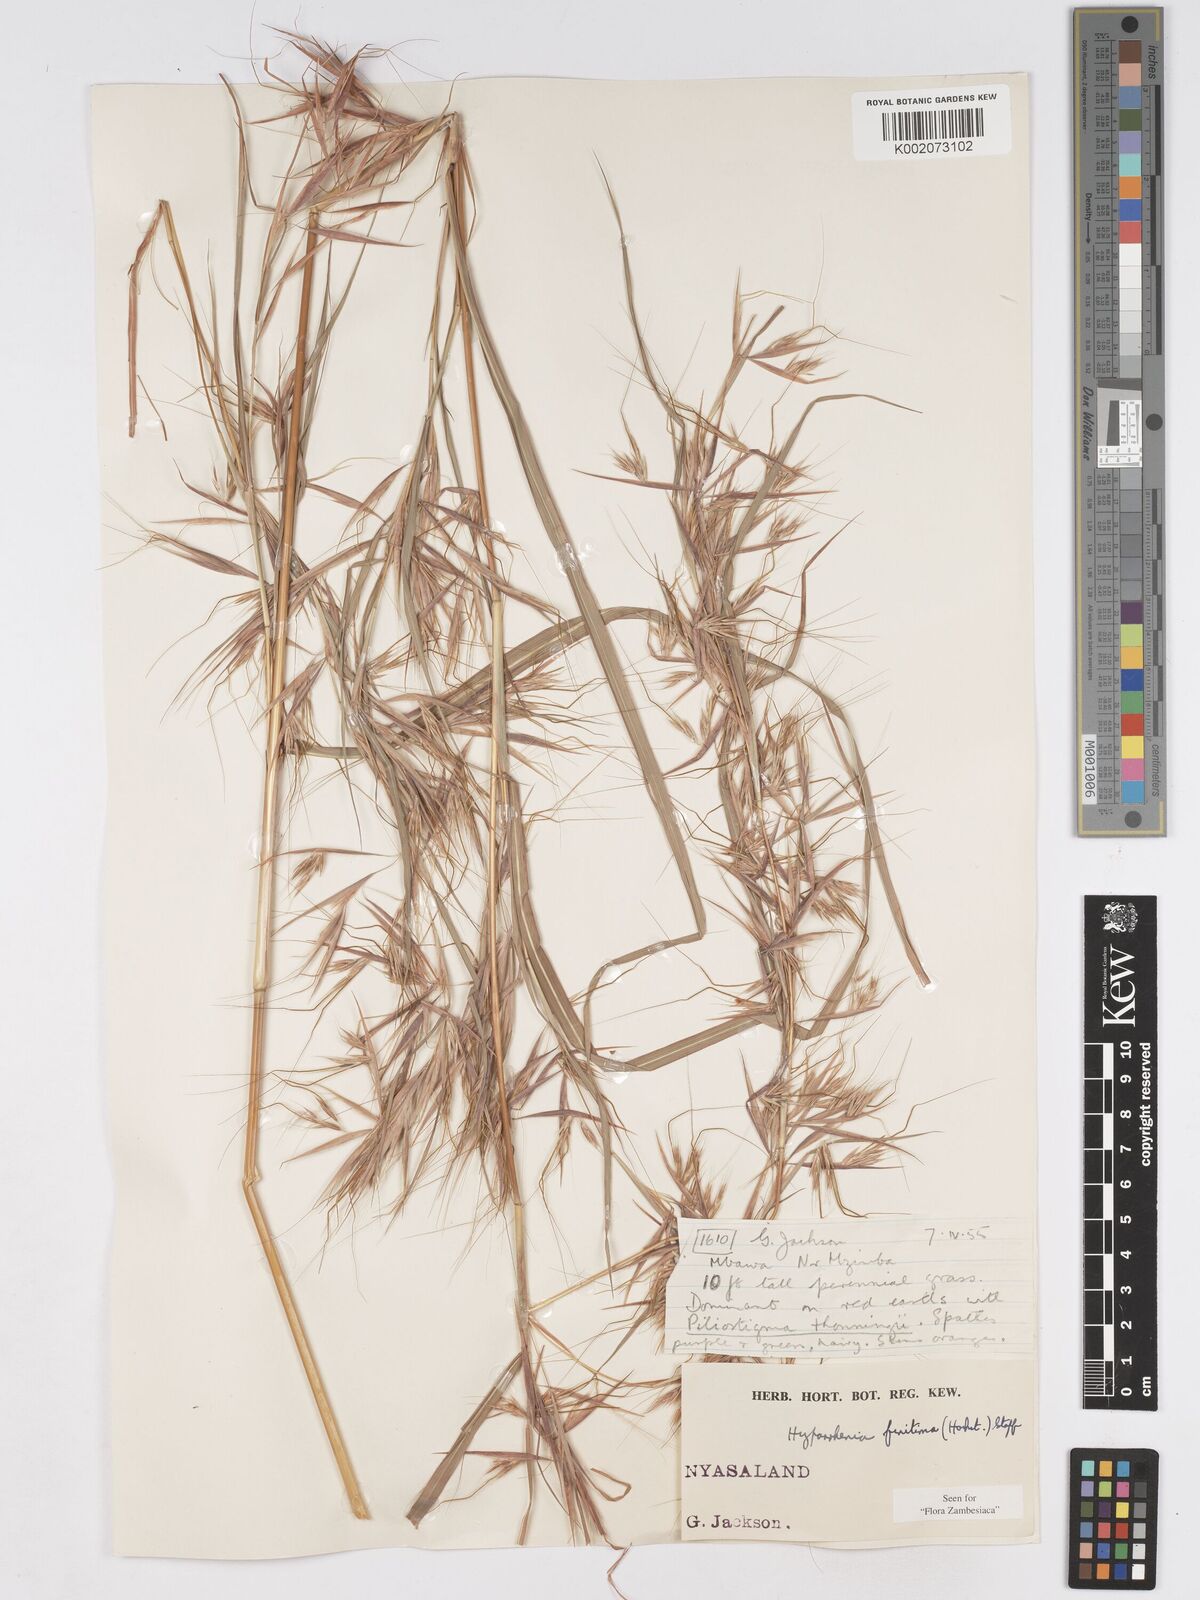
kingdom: Plantae
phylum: Tracheophyta
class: Liliopsida
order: Poales
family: Poaceae
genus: Hyparrhenia
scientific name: Hyparrhenia finitima
